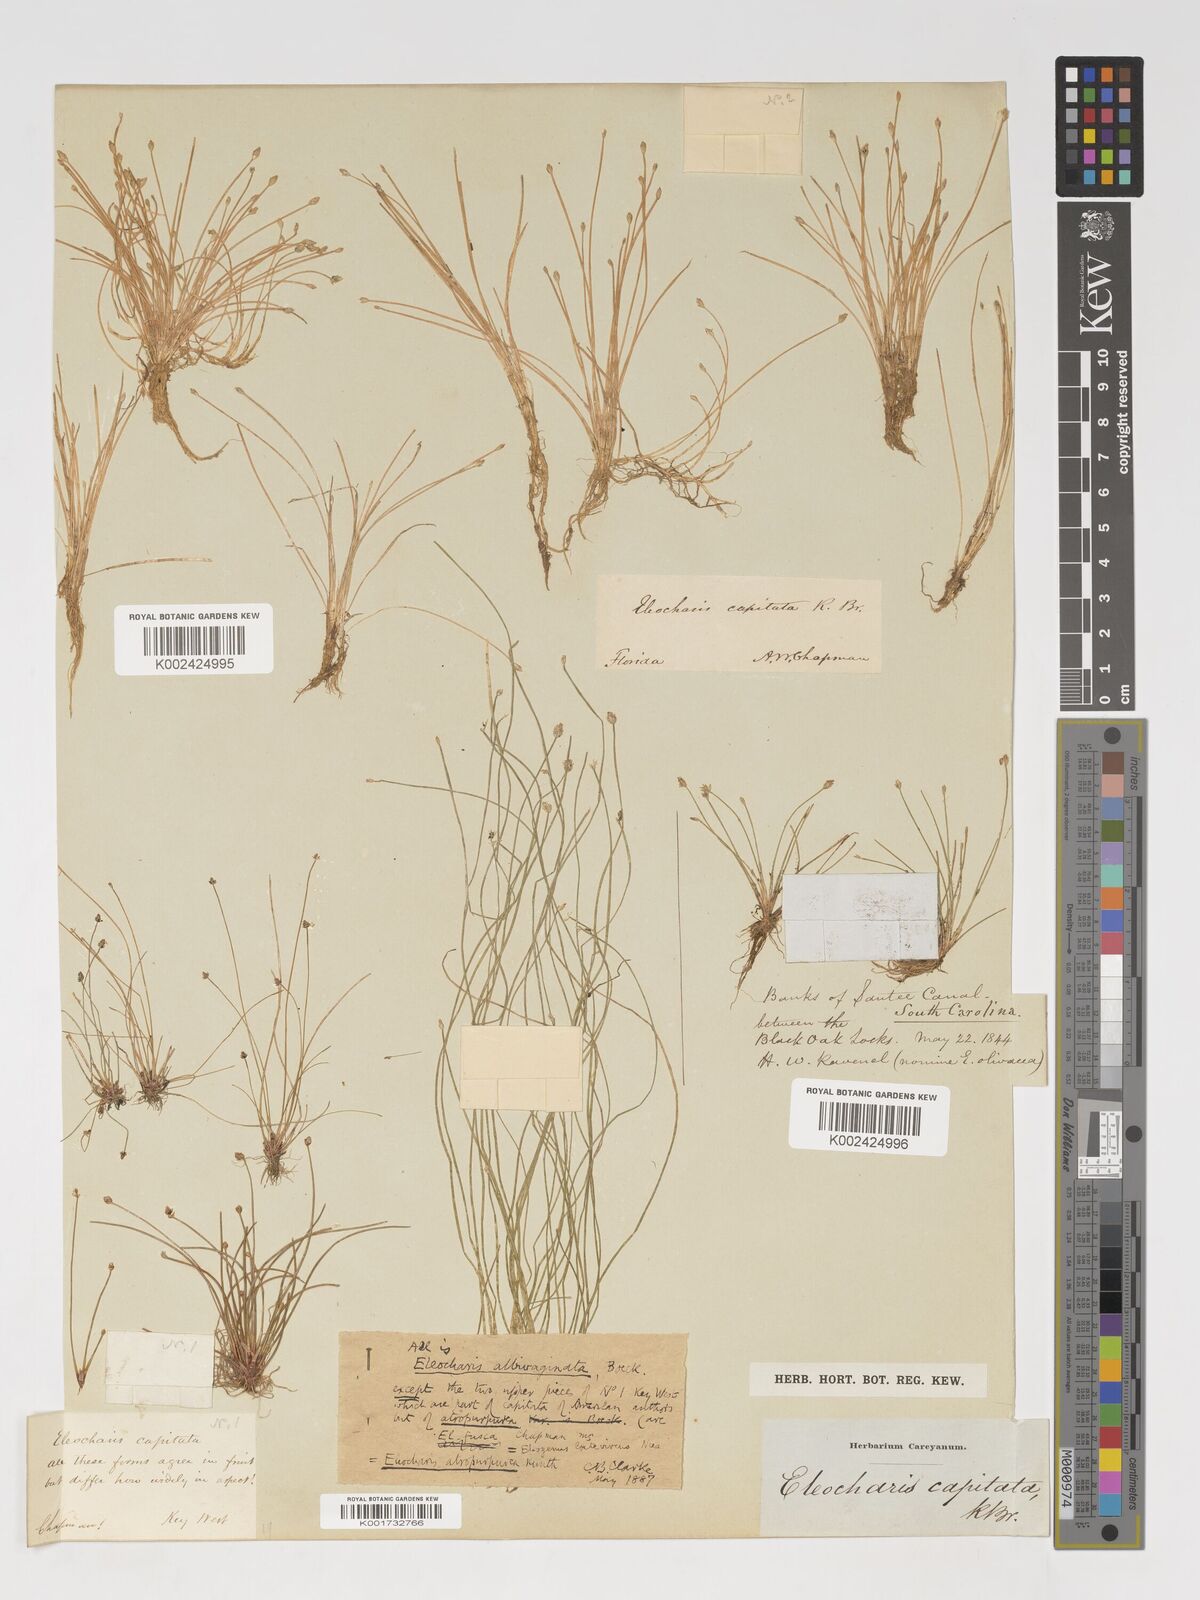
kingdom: Plantae
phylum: Tracheophyta
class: Liliopsida
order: Poales
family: Cyperaceae
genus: Eleocharis
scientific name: Eleocharis flavescens
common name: Yellow spikerush
